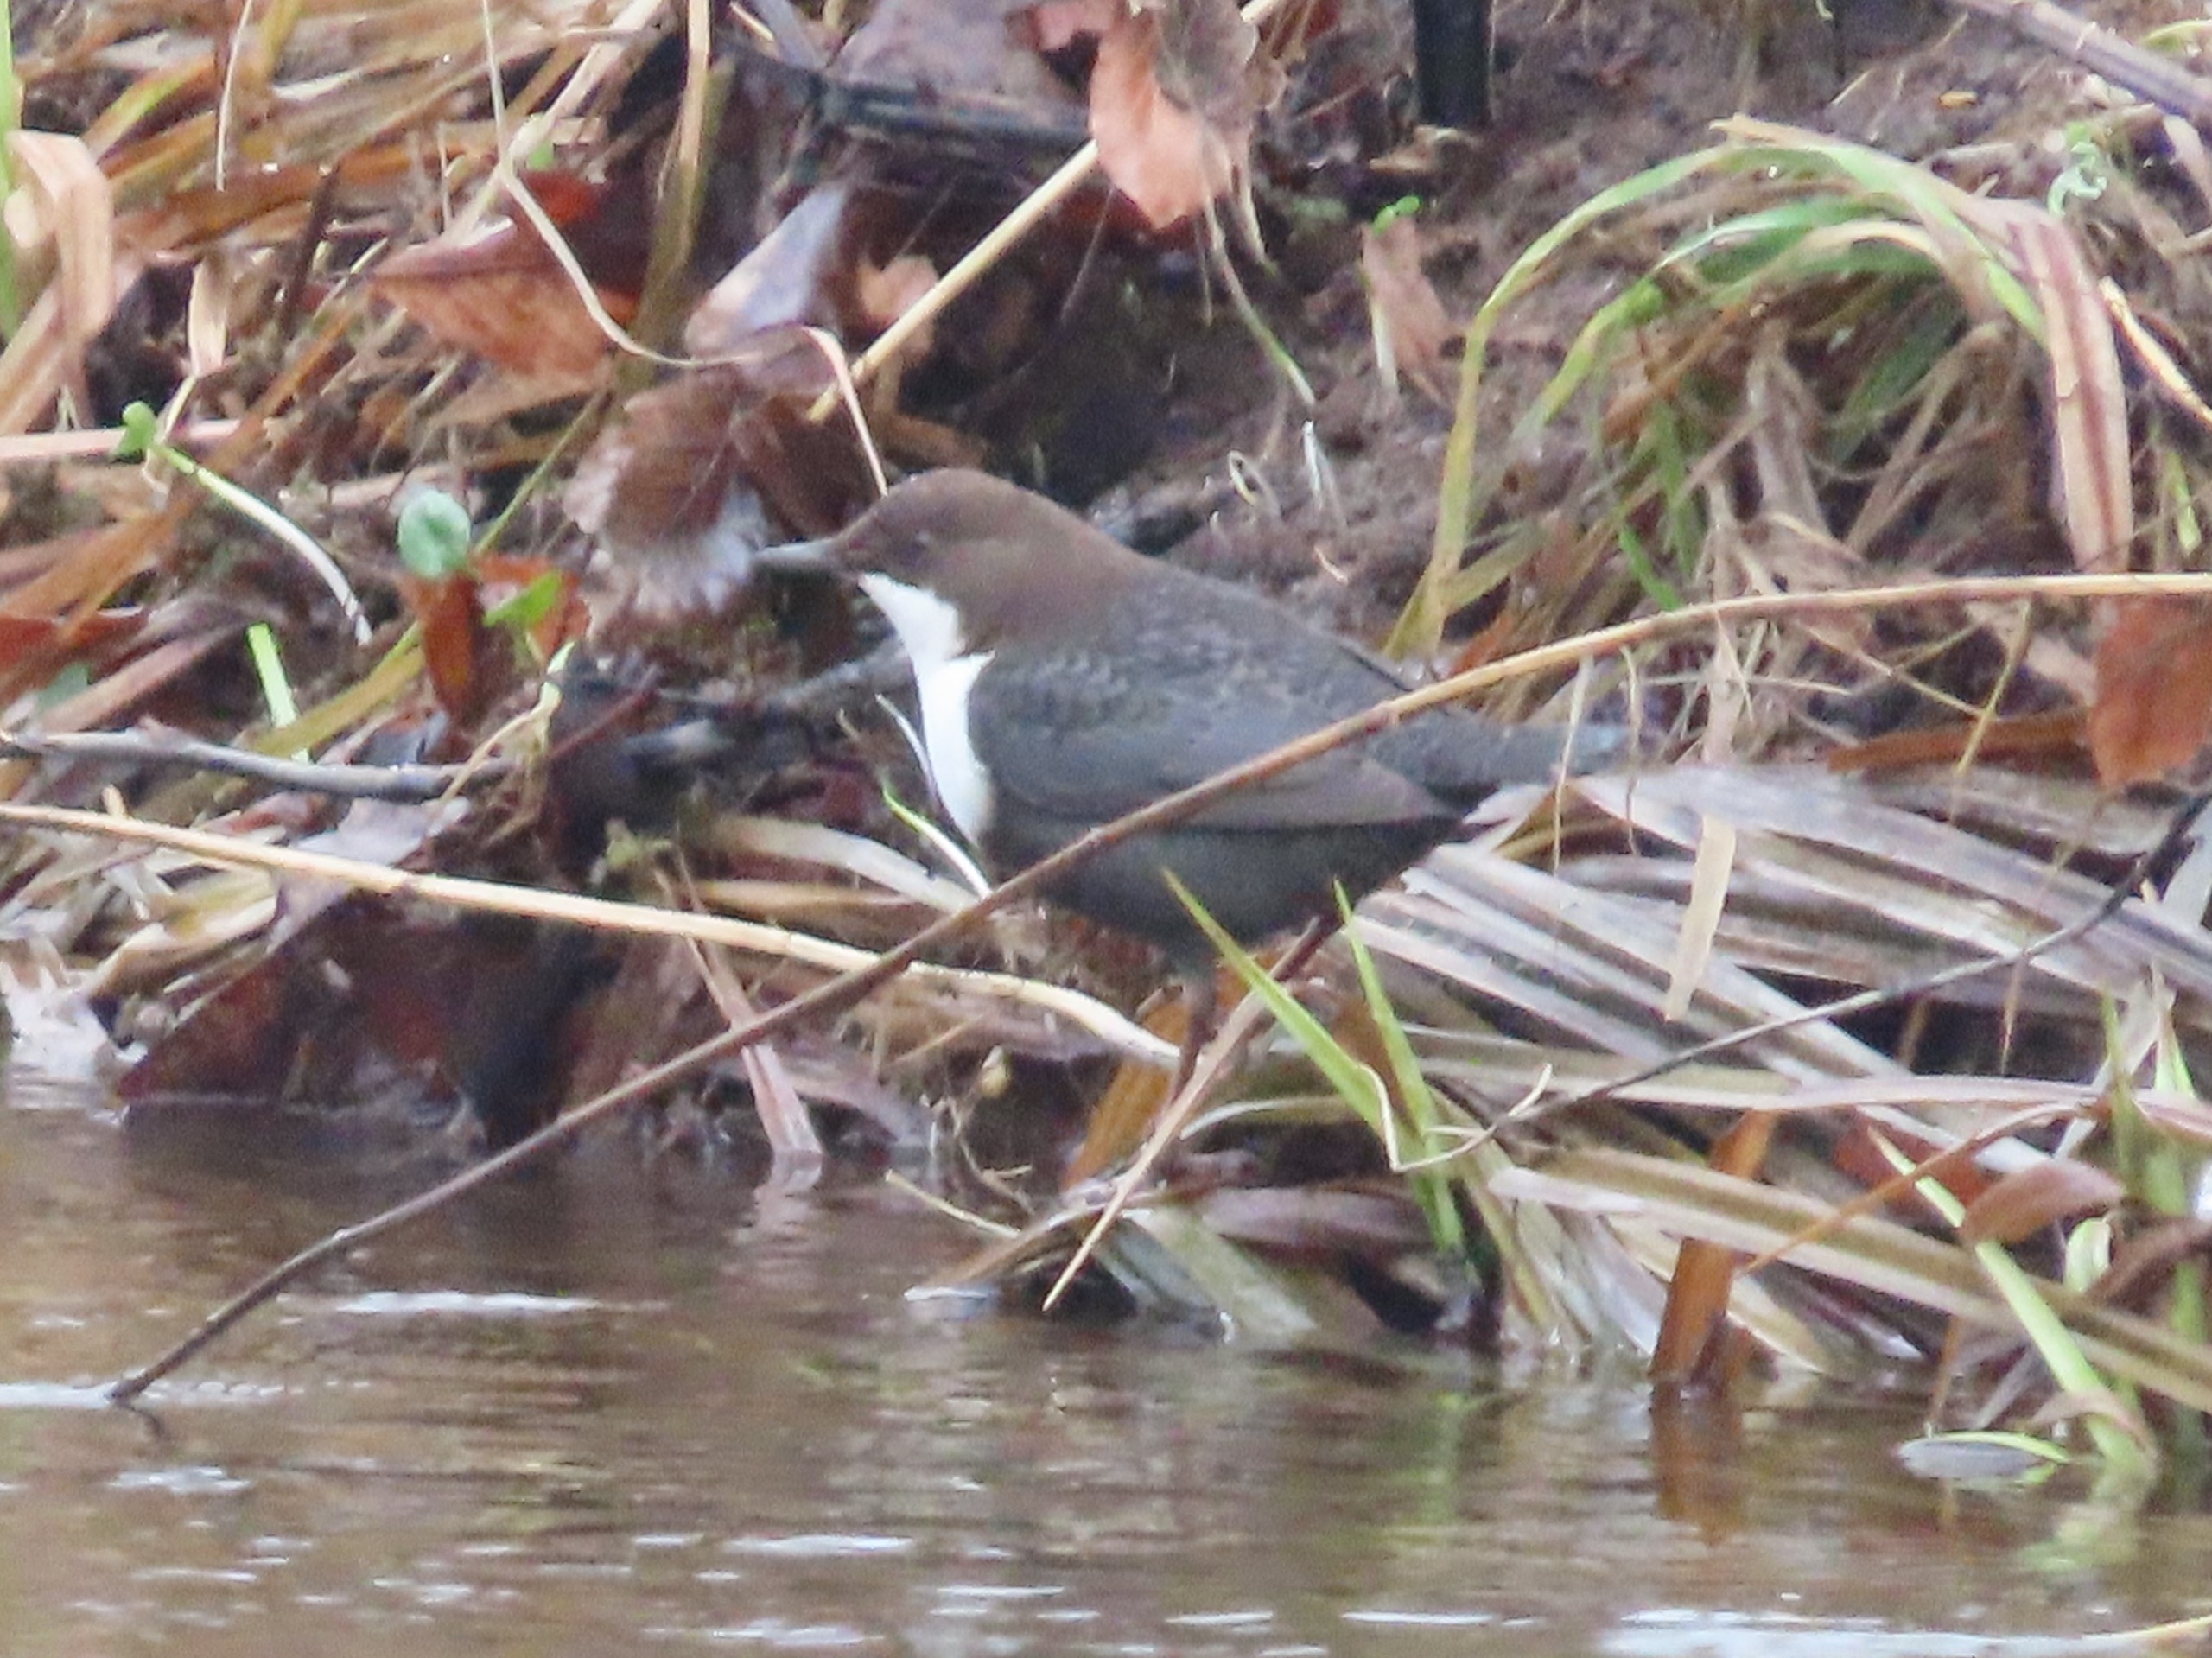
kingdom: Animalia
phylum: Chordata
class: Aves
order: Passeriformes
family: Cinclidae
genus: Cinclus
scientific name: Cinclus cinclus
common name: Vandstær
